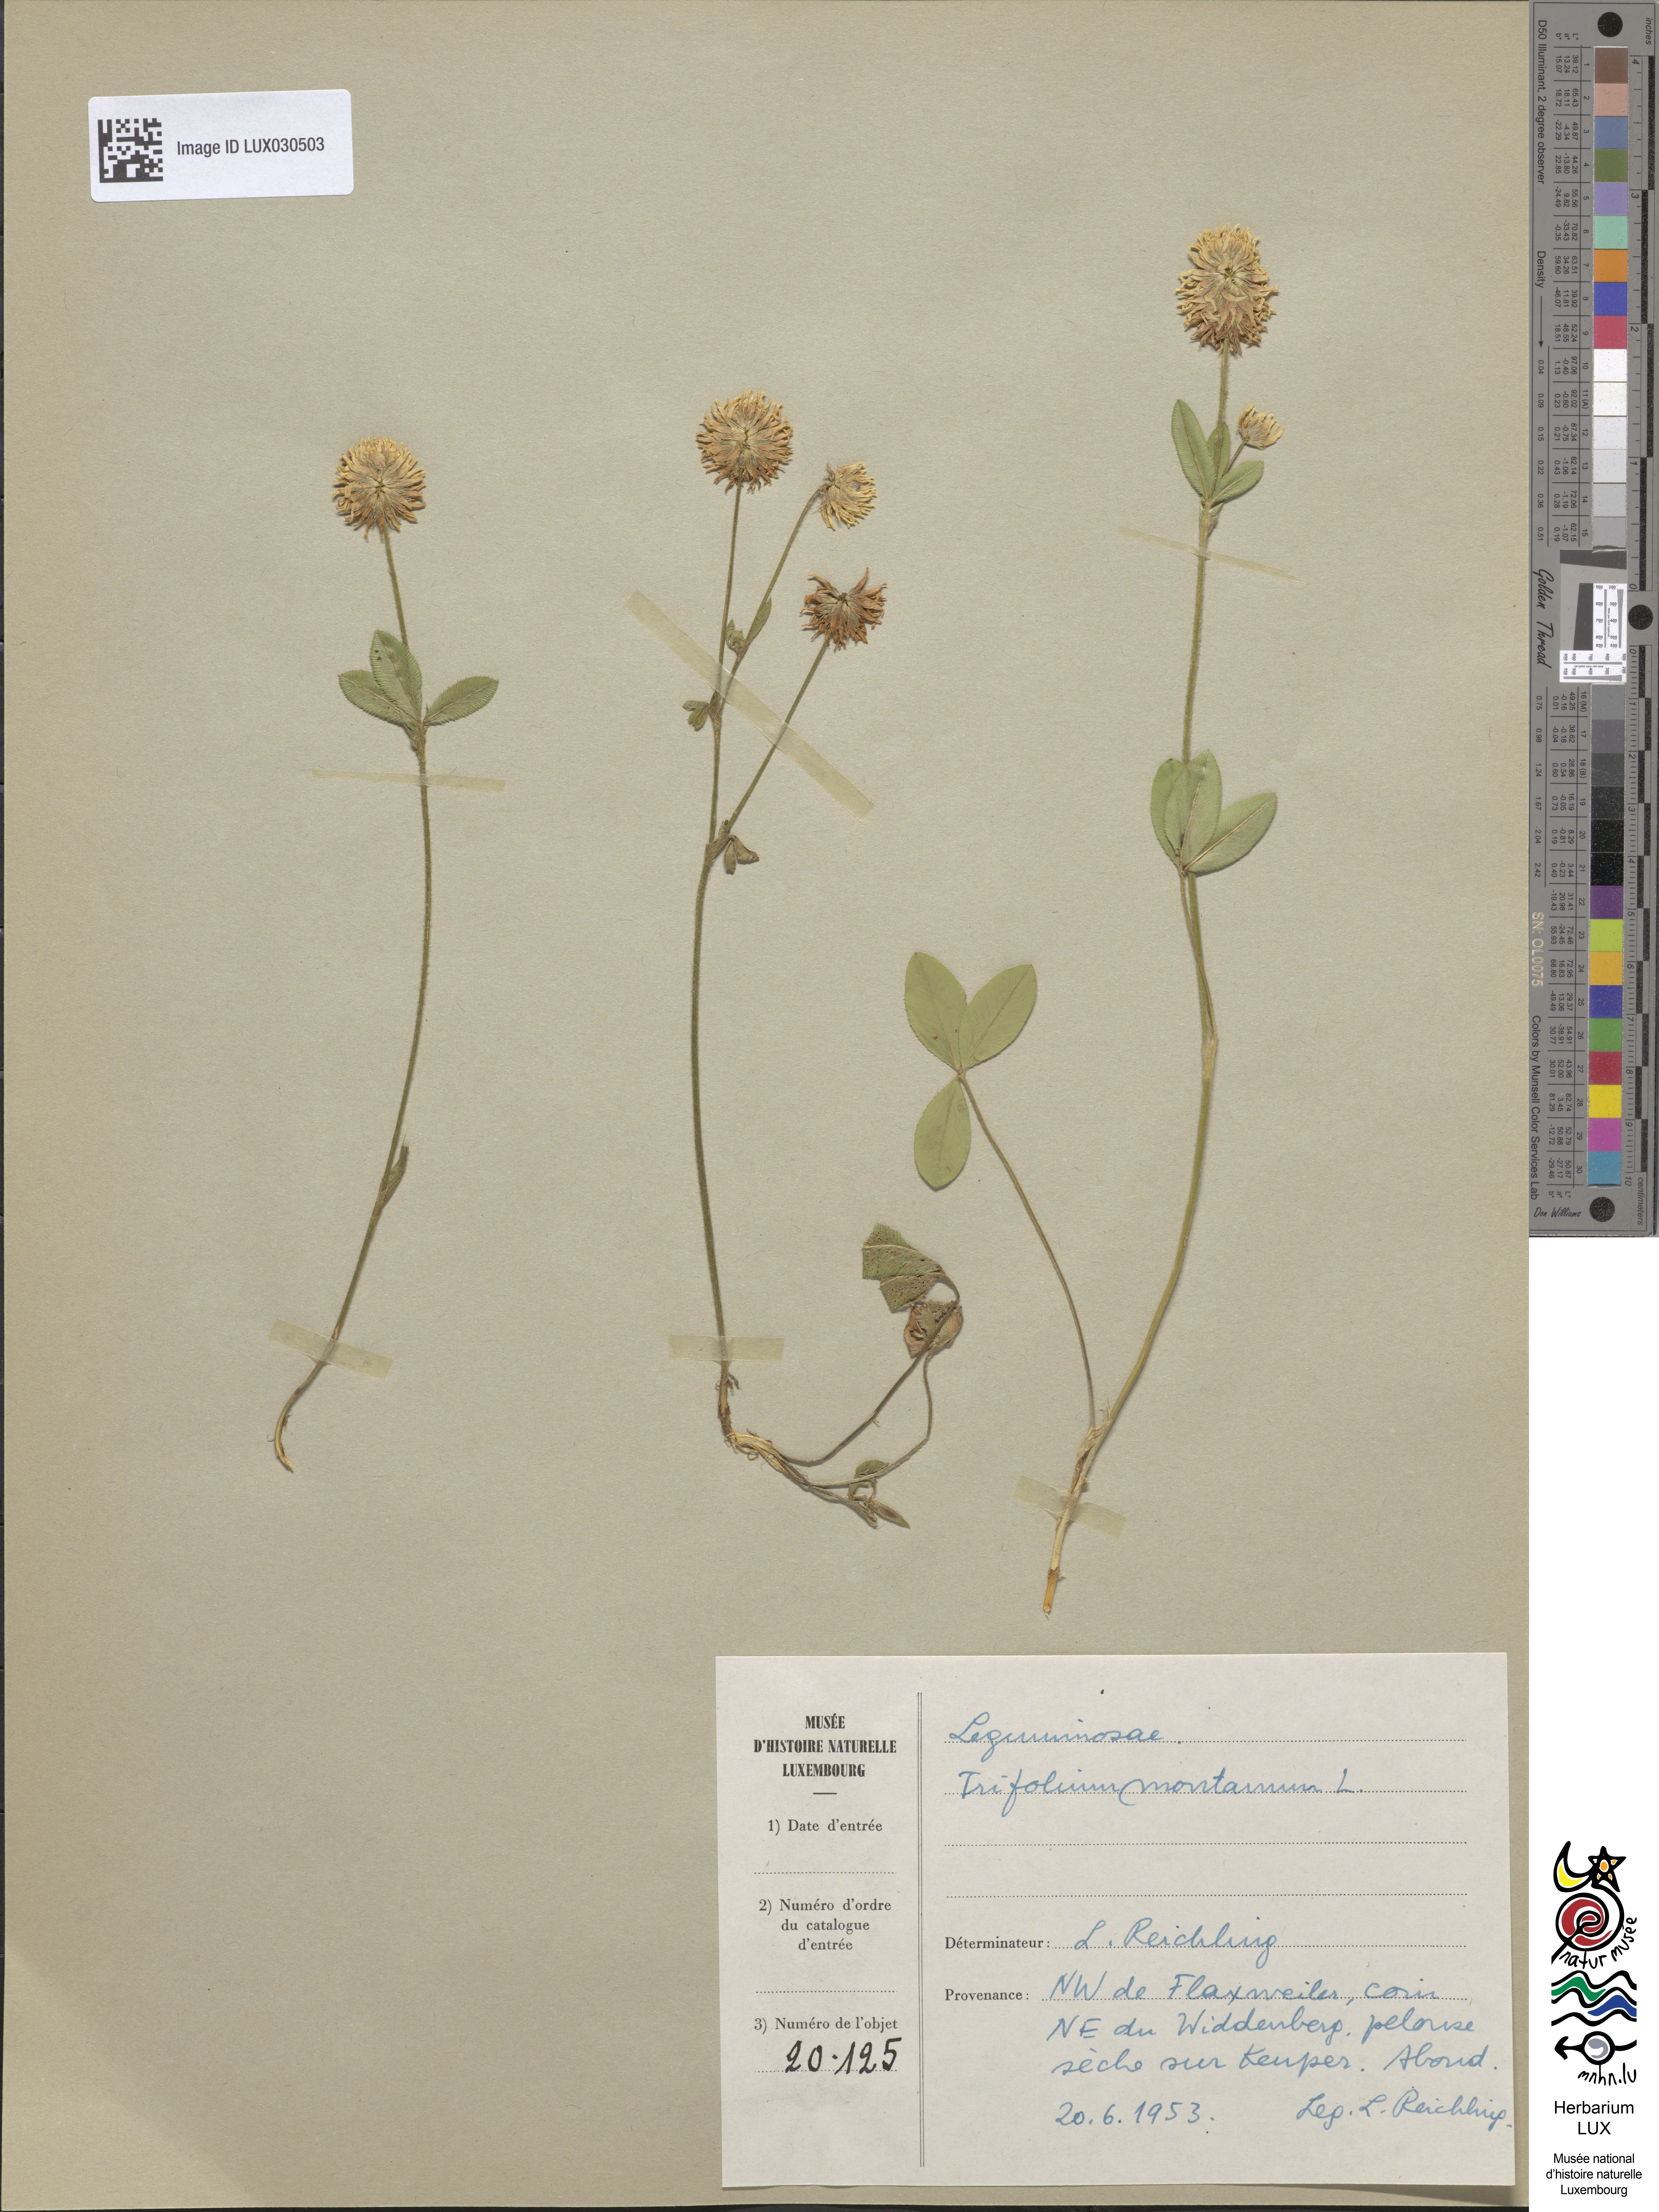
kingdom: Plantae
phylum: Tracheophyta
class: Magnoliopsida
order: Fabales
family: Fabaceae
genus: Trifolium
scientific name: Trifolium montanum
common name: Mountain clover
